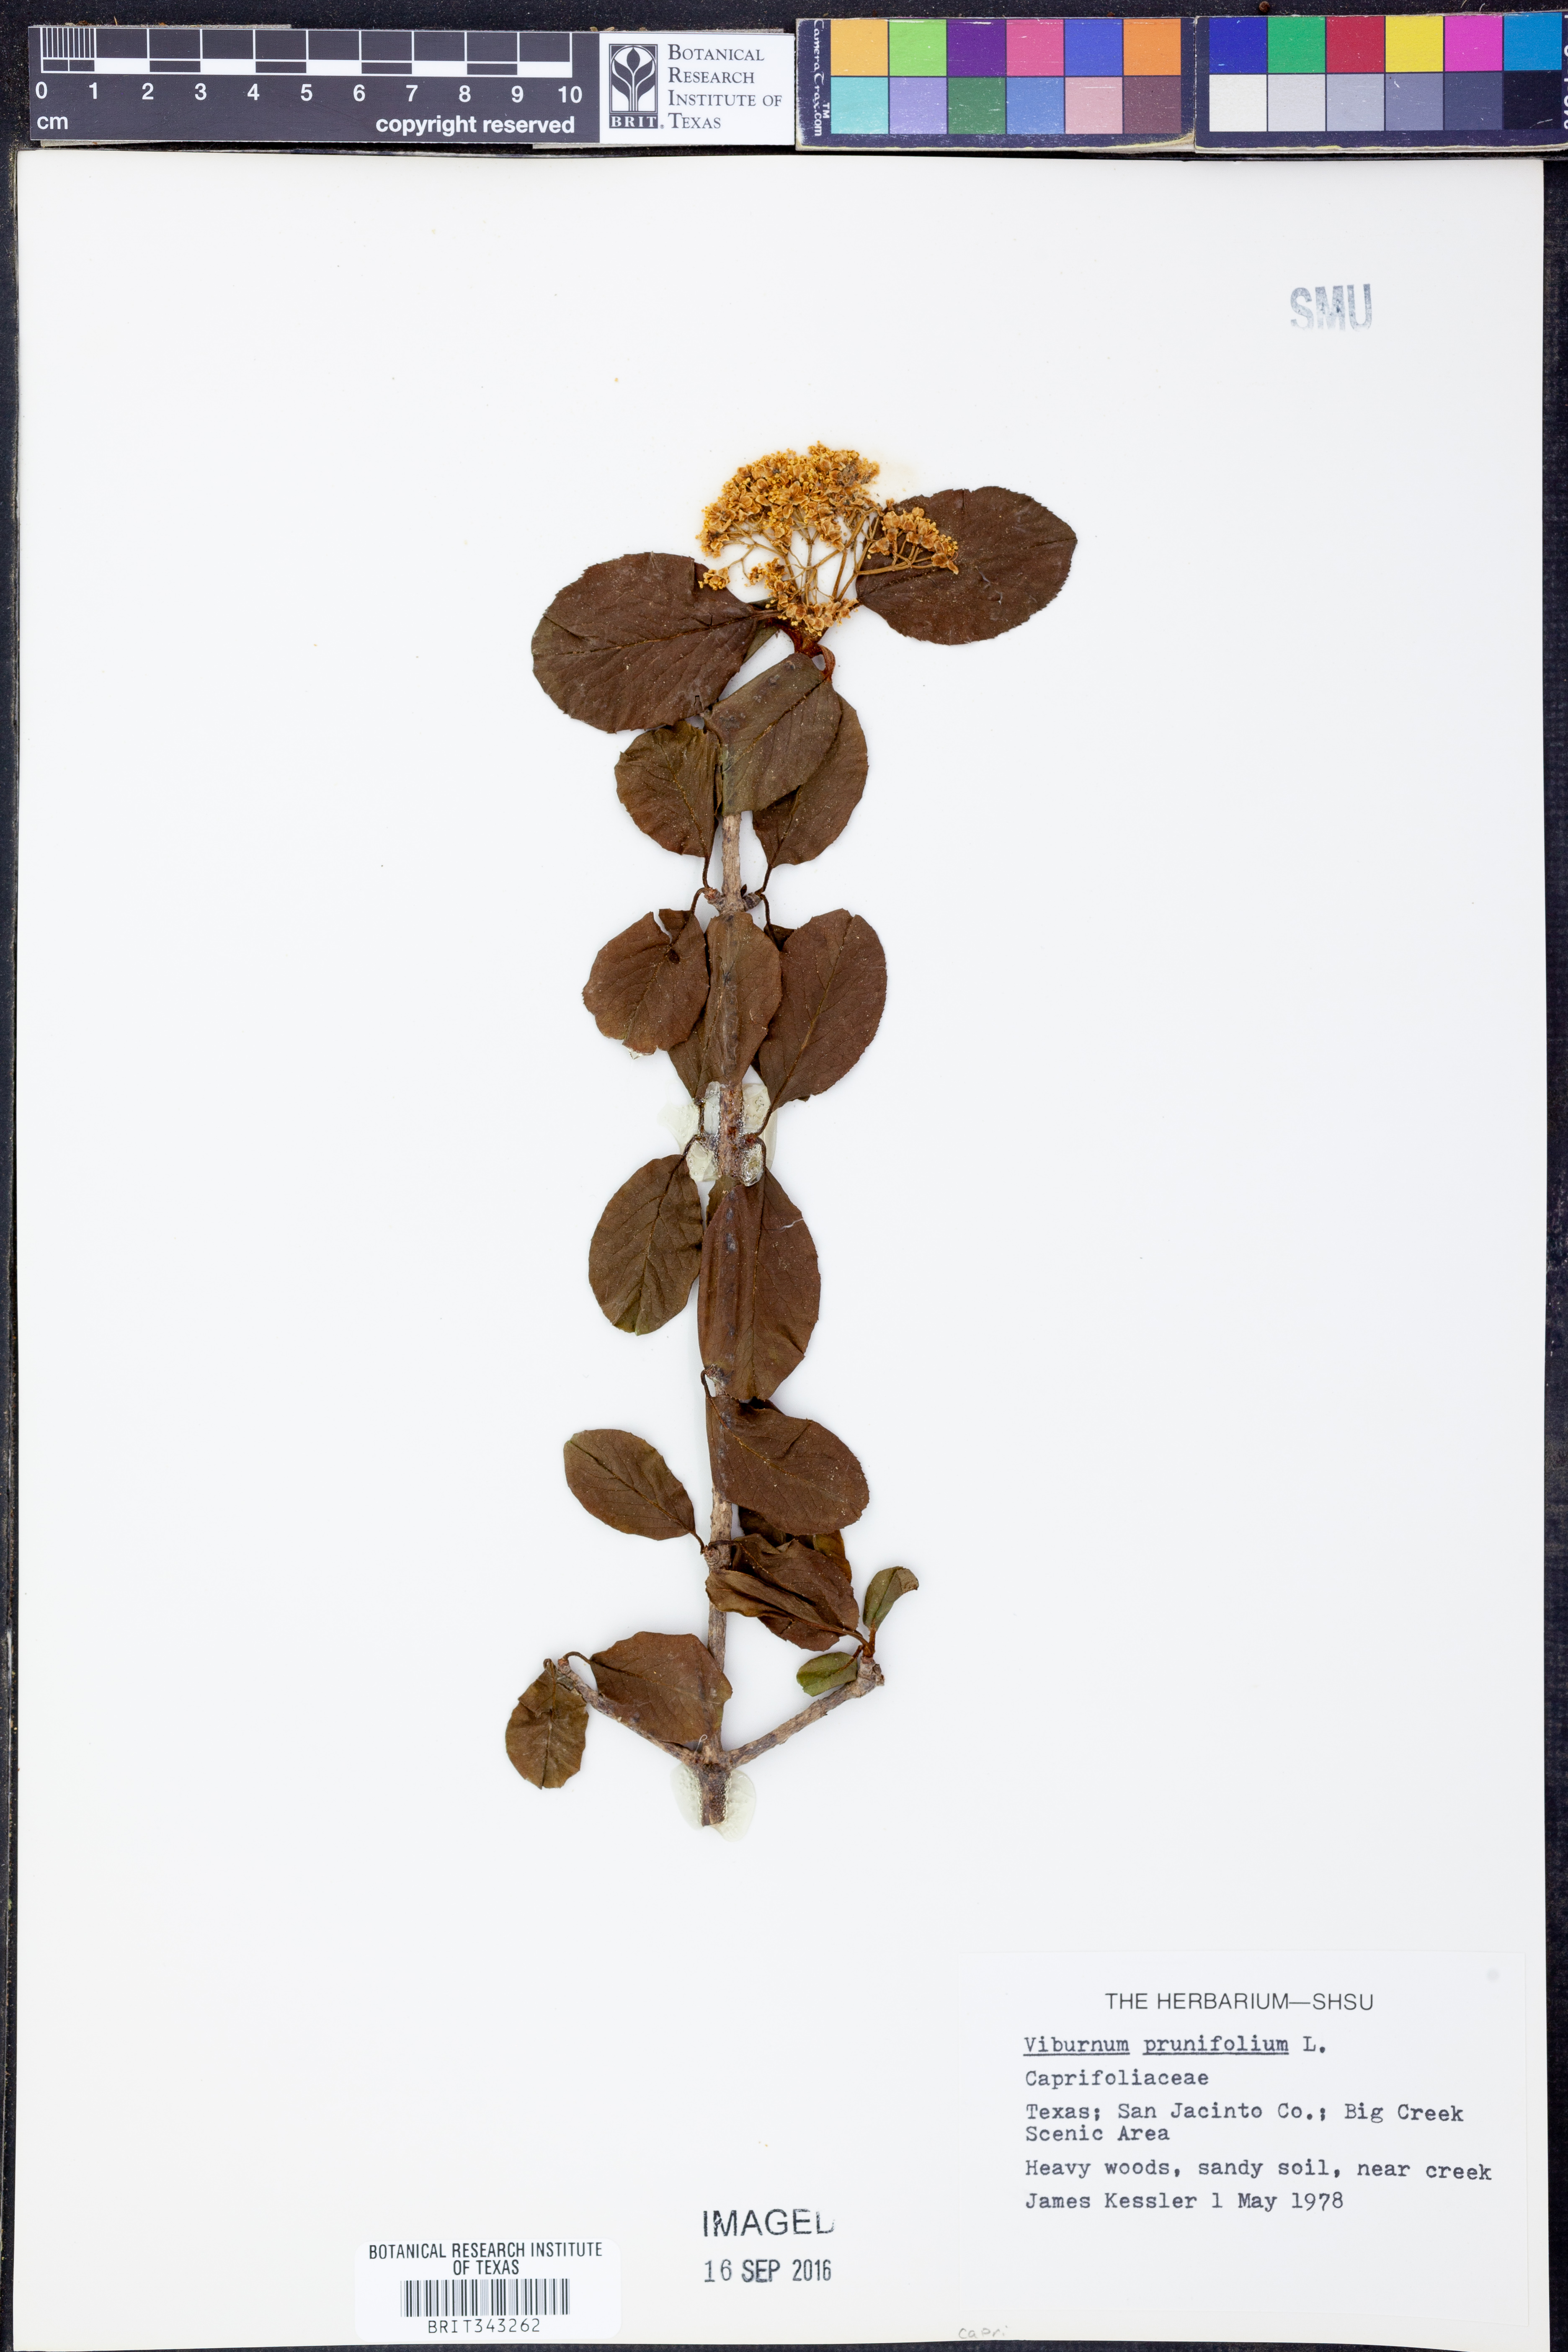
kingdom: Plantae
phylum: Tracheophyta
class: Magnoliopsida
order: Dipsacales
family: Viburnaceae
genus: Viburnum
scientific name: Viburnum prunifolium
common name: Black haw
